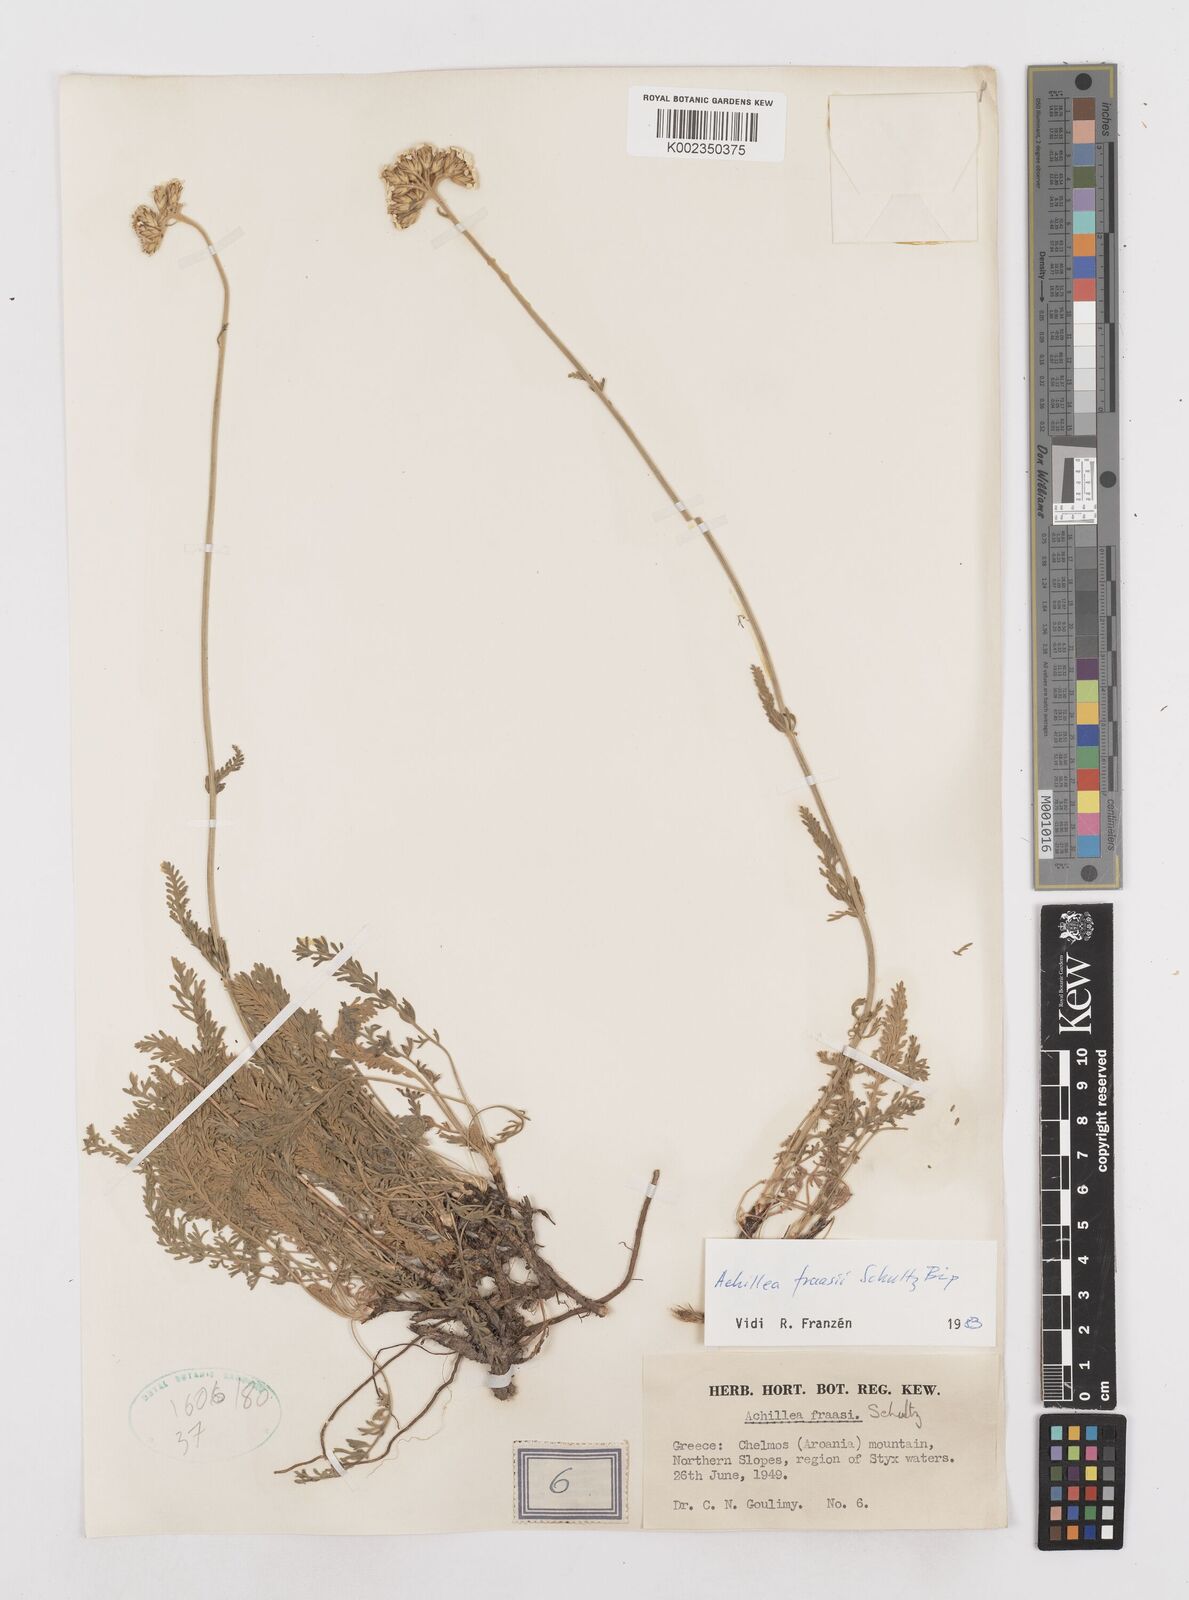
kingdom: Plantae
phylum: Tracheophyta
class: Magnoliopsida
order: Asterales
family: Asteraceae
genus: Achillea
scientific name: Achillea fraasii
